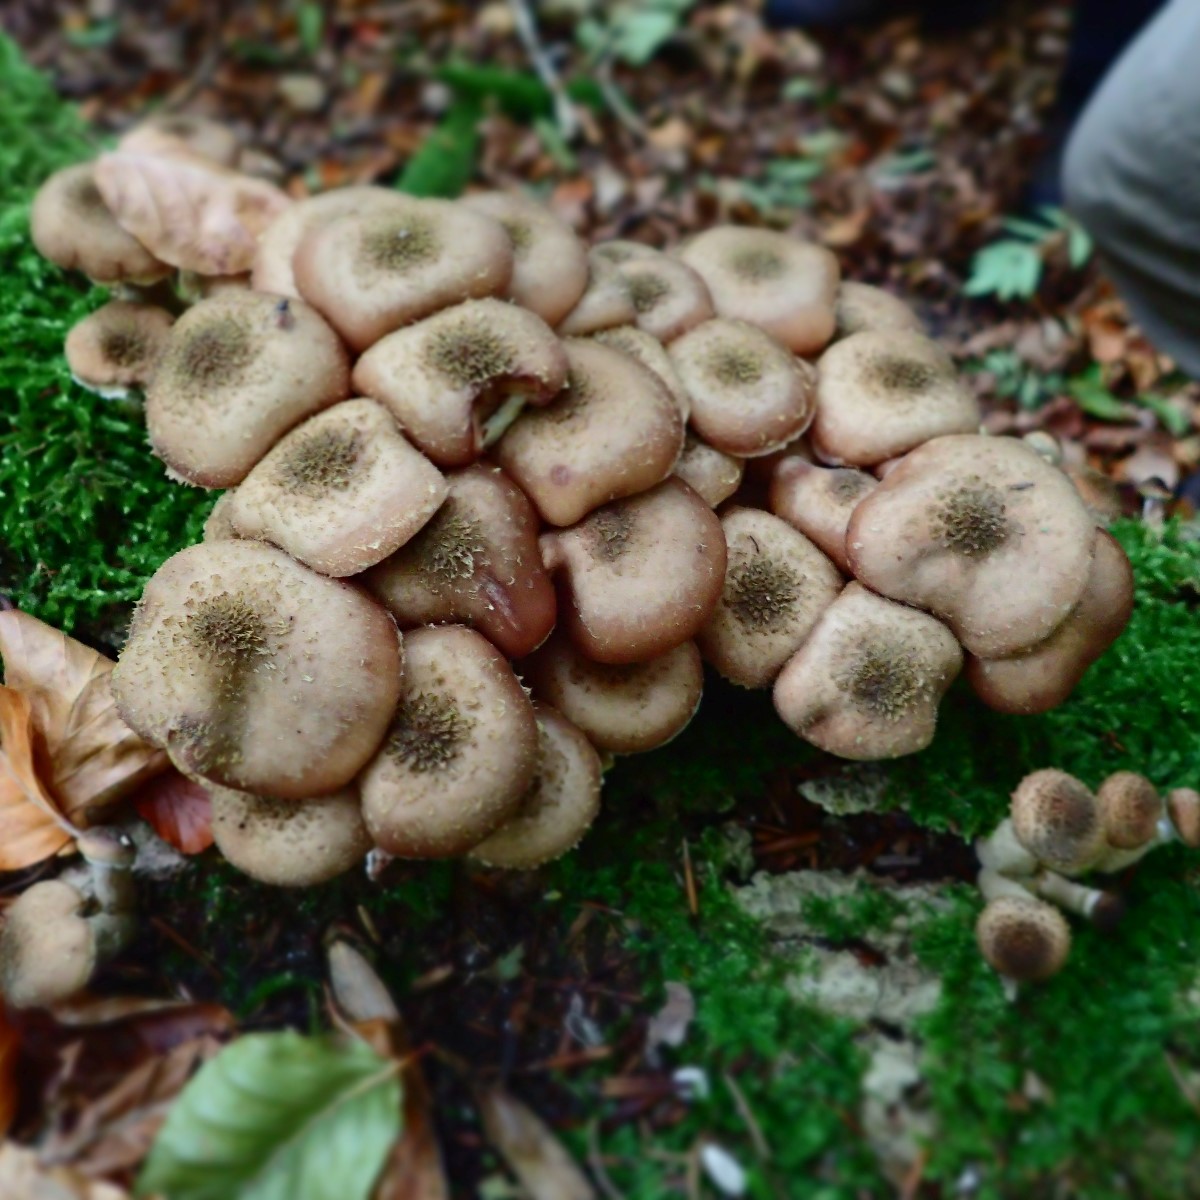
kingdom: Fungi
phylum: Basidiomycota
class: Agaricomycetes
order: Agaricales
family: Physalacriaceae
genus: Armillaria
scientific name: Armillaria lutea
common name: køllestokket honningsvamp
